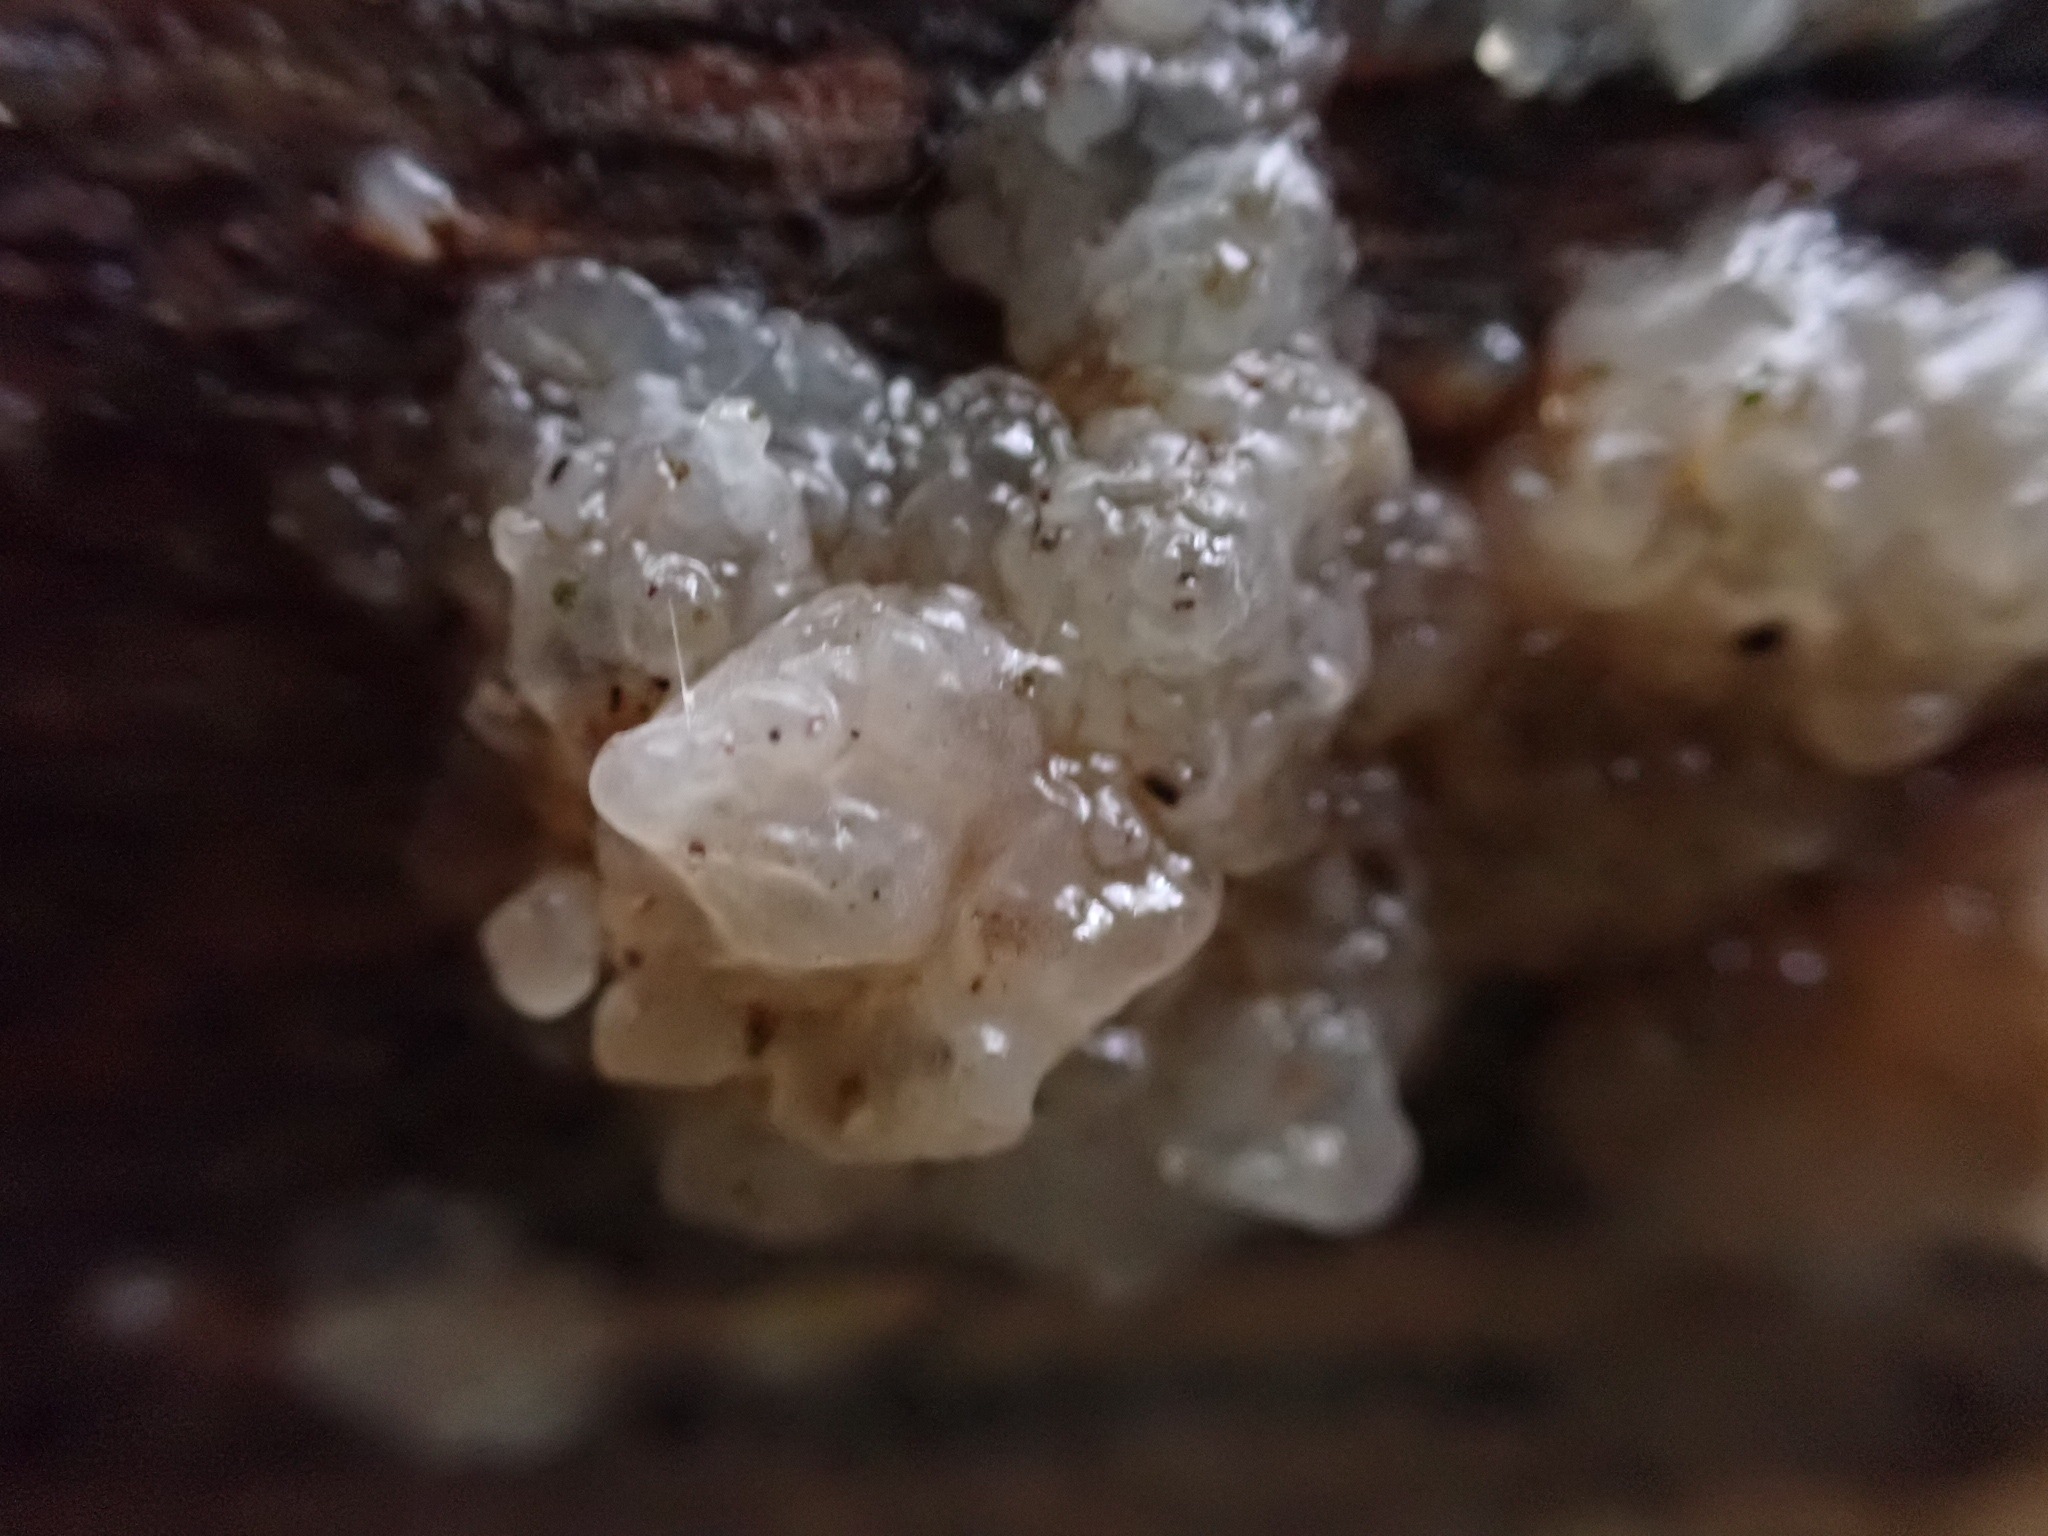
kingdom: Fungi
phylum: Basidiomycota
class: Tremellomycetes
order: Tremellales
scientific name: Tremellales
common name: bævresvampordenen
